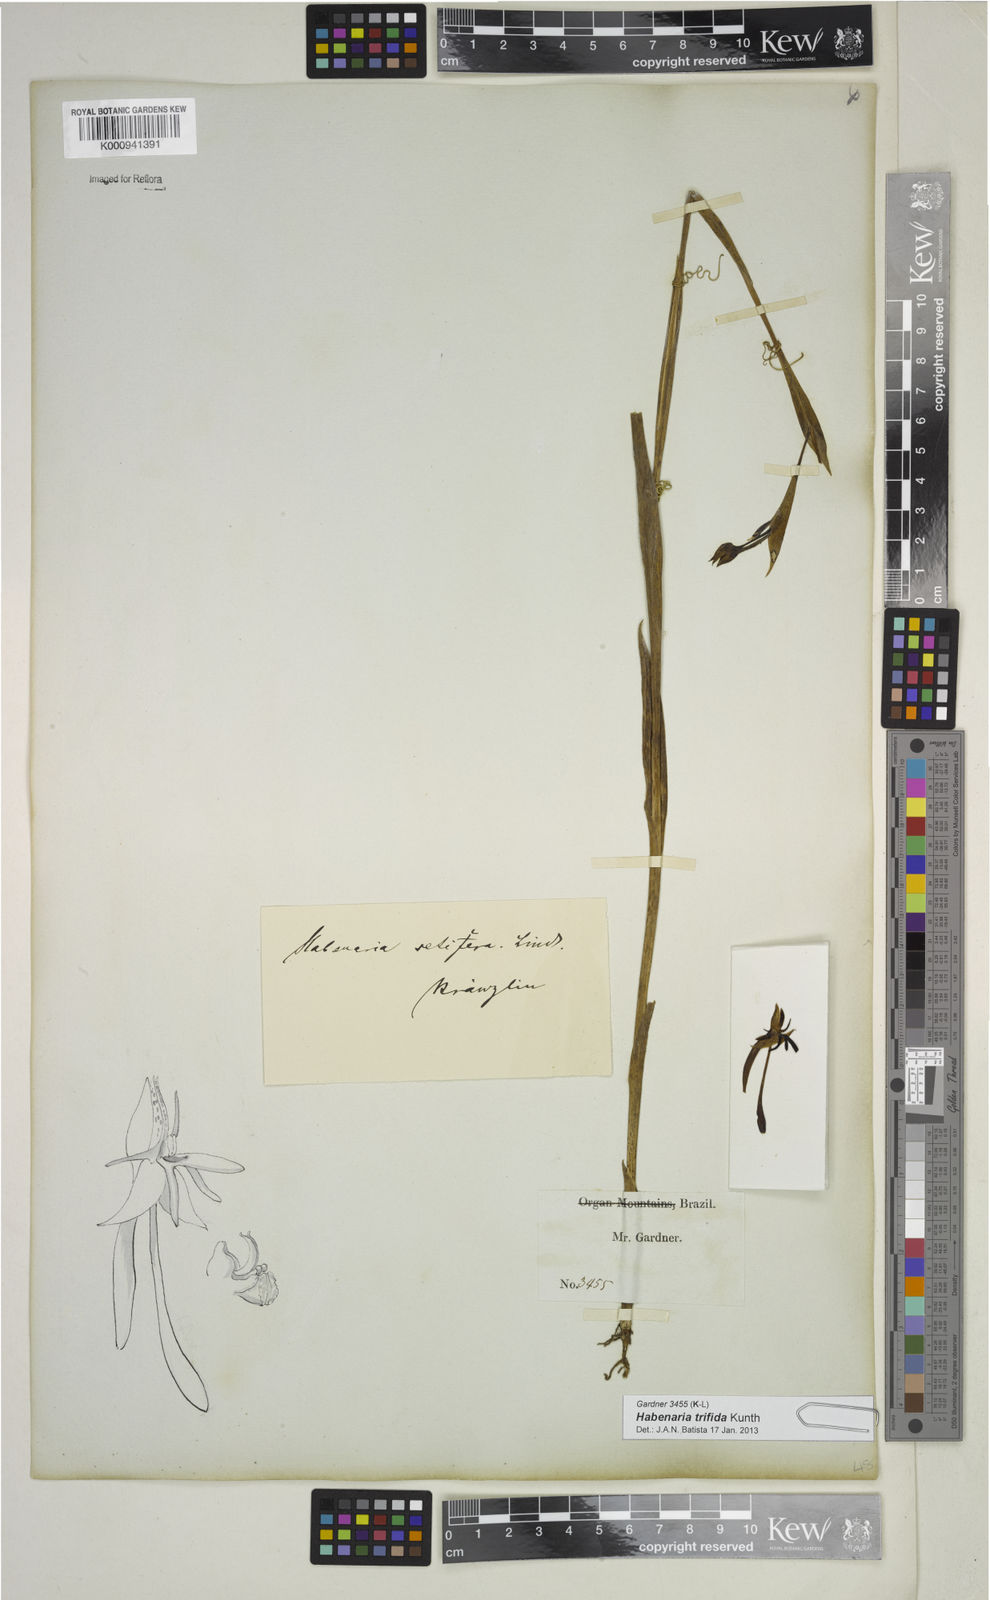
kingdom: Plantae
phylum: Tracheophyta
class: Liliopsida
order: Asparagales
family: Orchidaceae
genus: Habenaria
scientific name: Habenaria trifida
